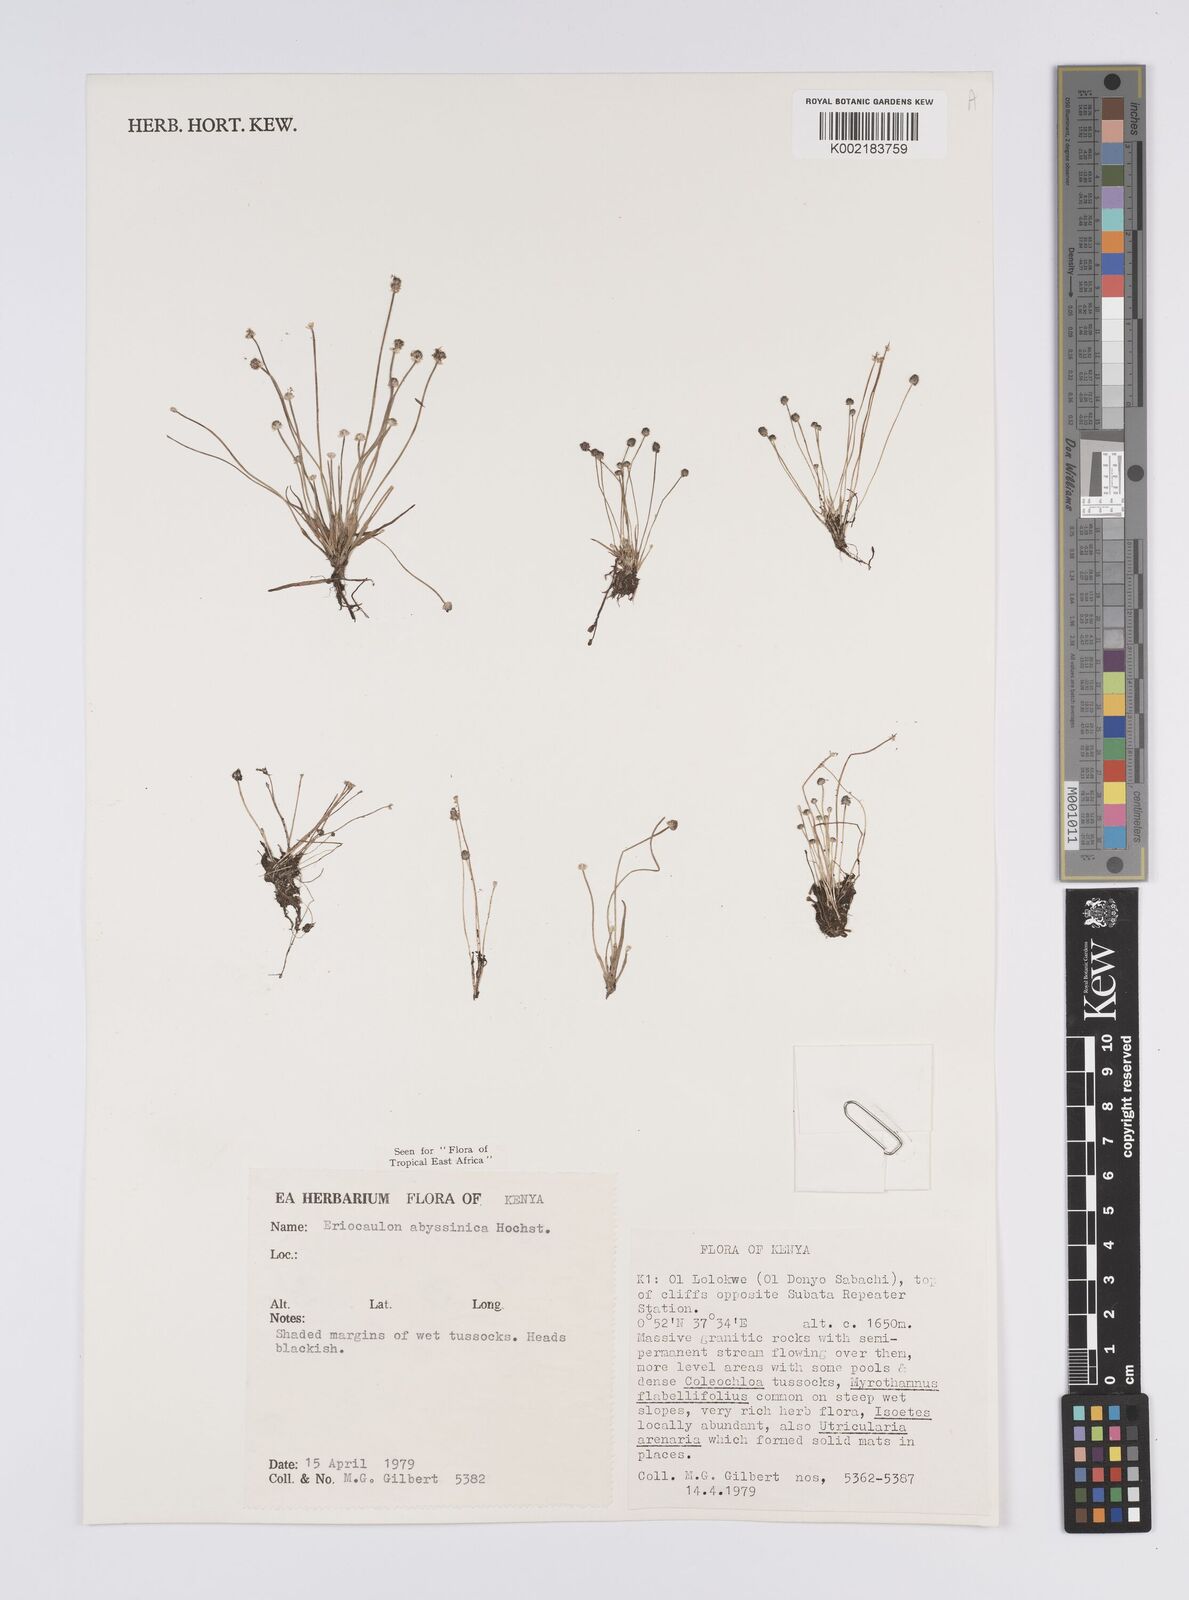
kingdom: Plantae
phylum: Tracheophyta
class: Liliopsida
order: Poales
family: Eriocaulaceae
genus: Eriocaulon
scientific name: Eriocaulon abyssinicum
